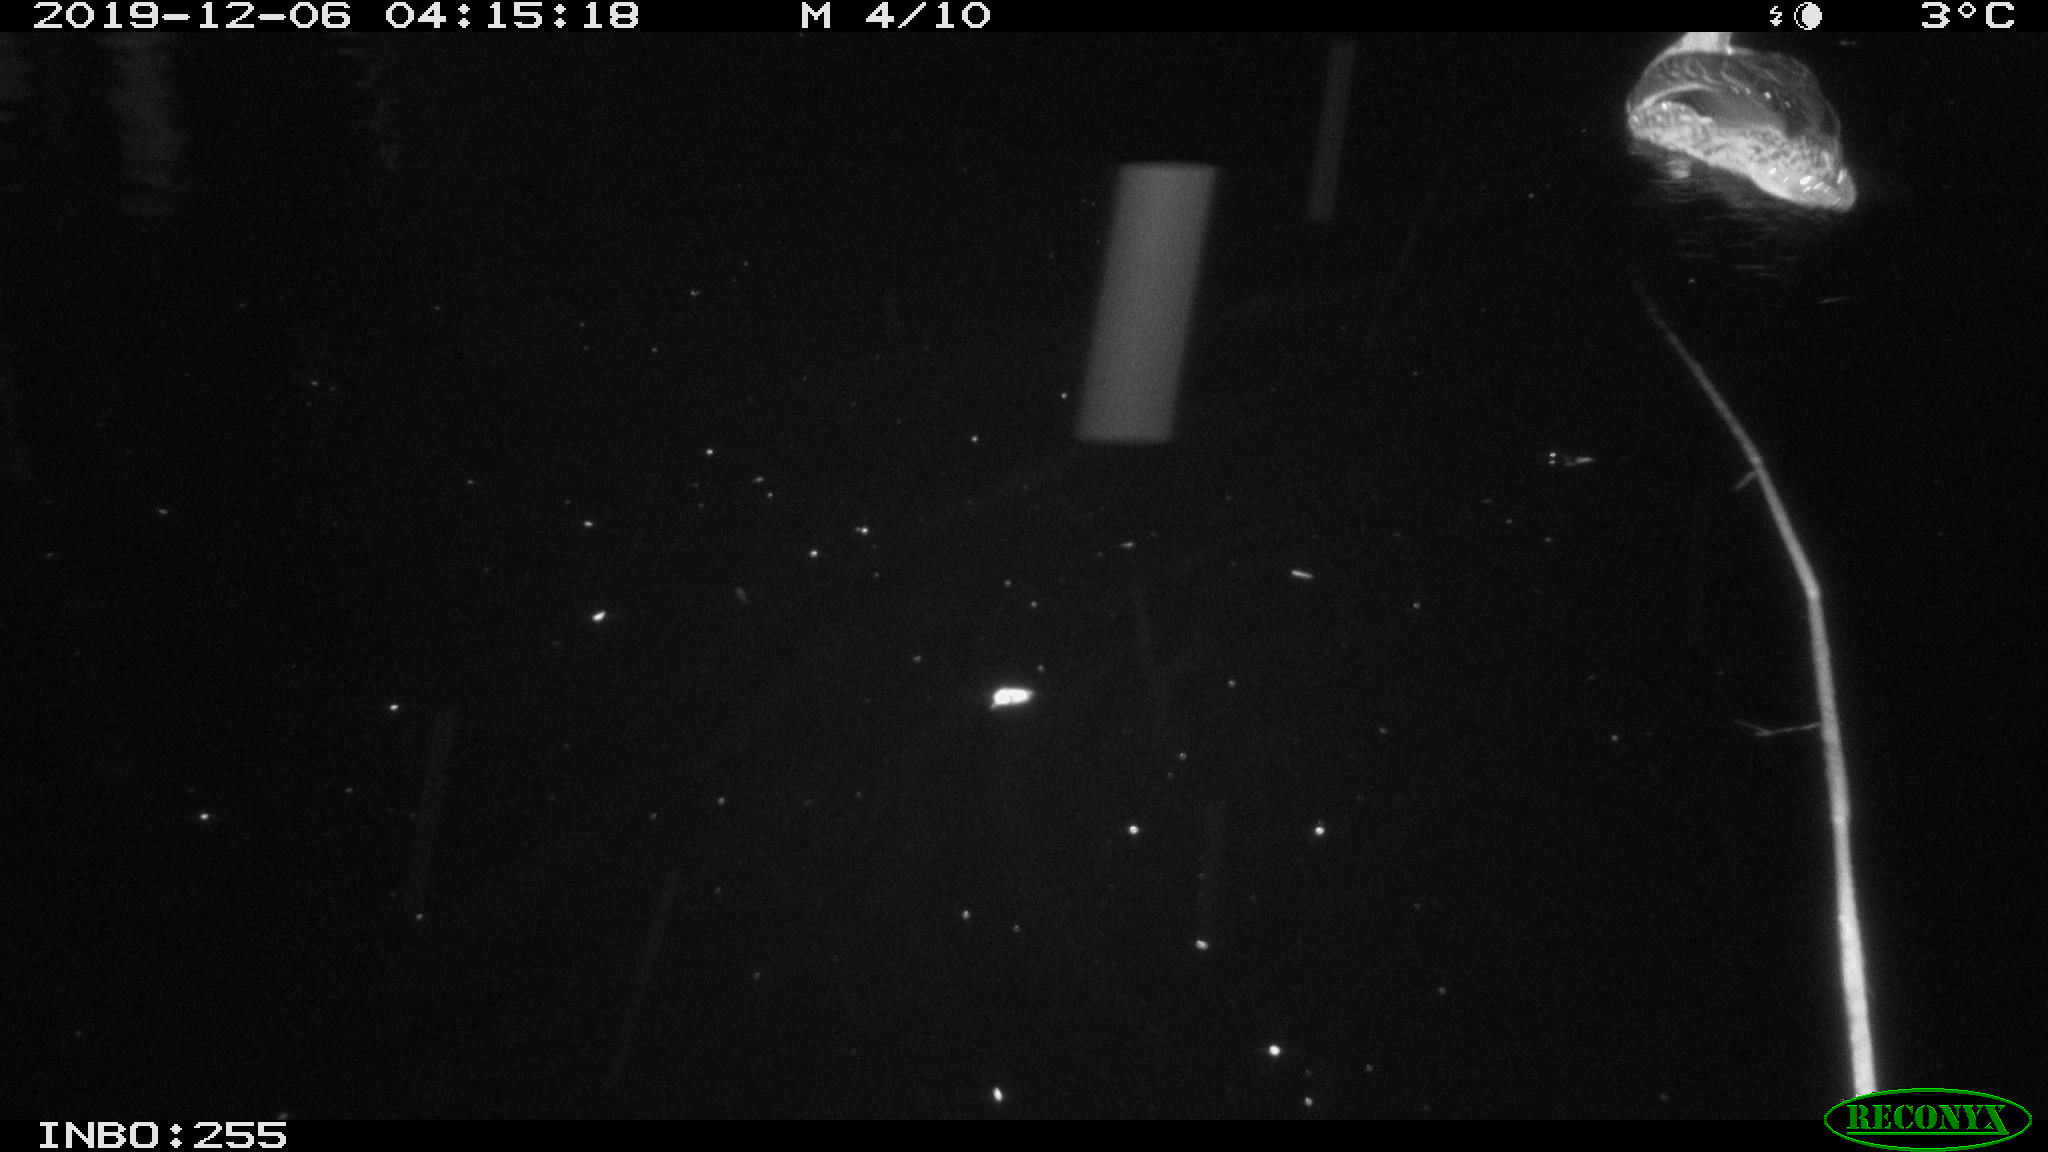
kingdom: Animalia
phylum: Chordata
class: Aves
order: Anseriformes
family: Anatidae
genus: Anas
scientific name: Anas platyrhynchos
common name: Mallard
